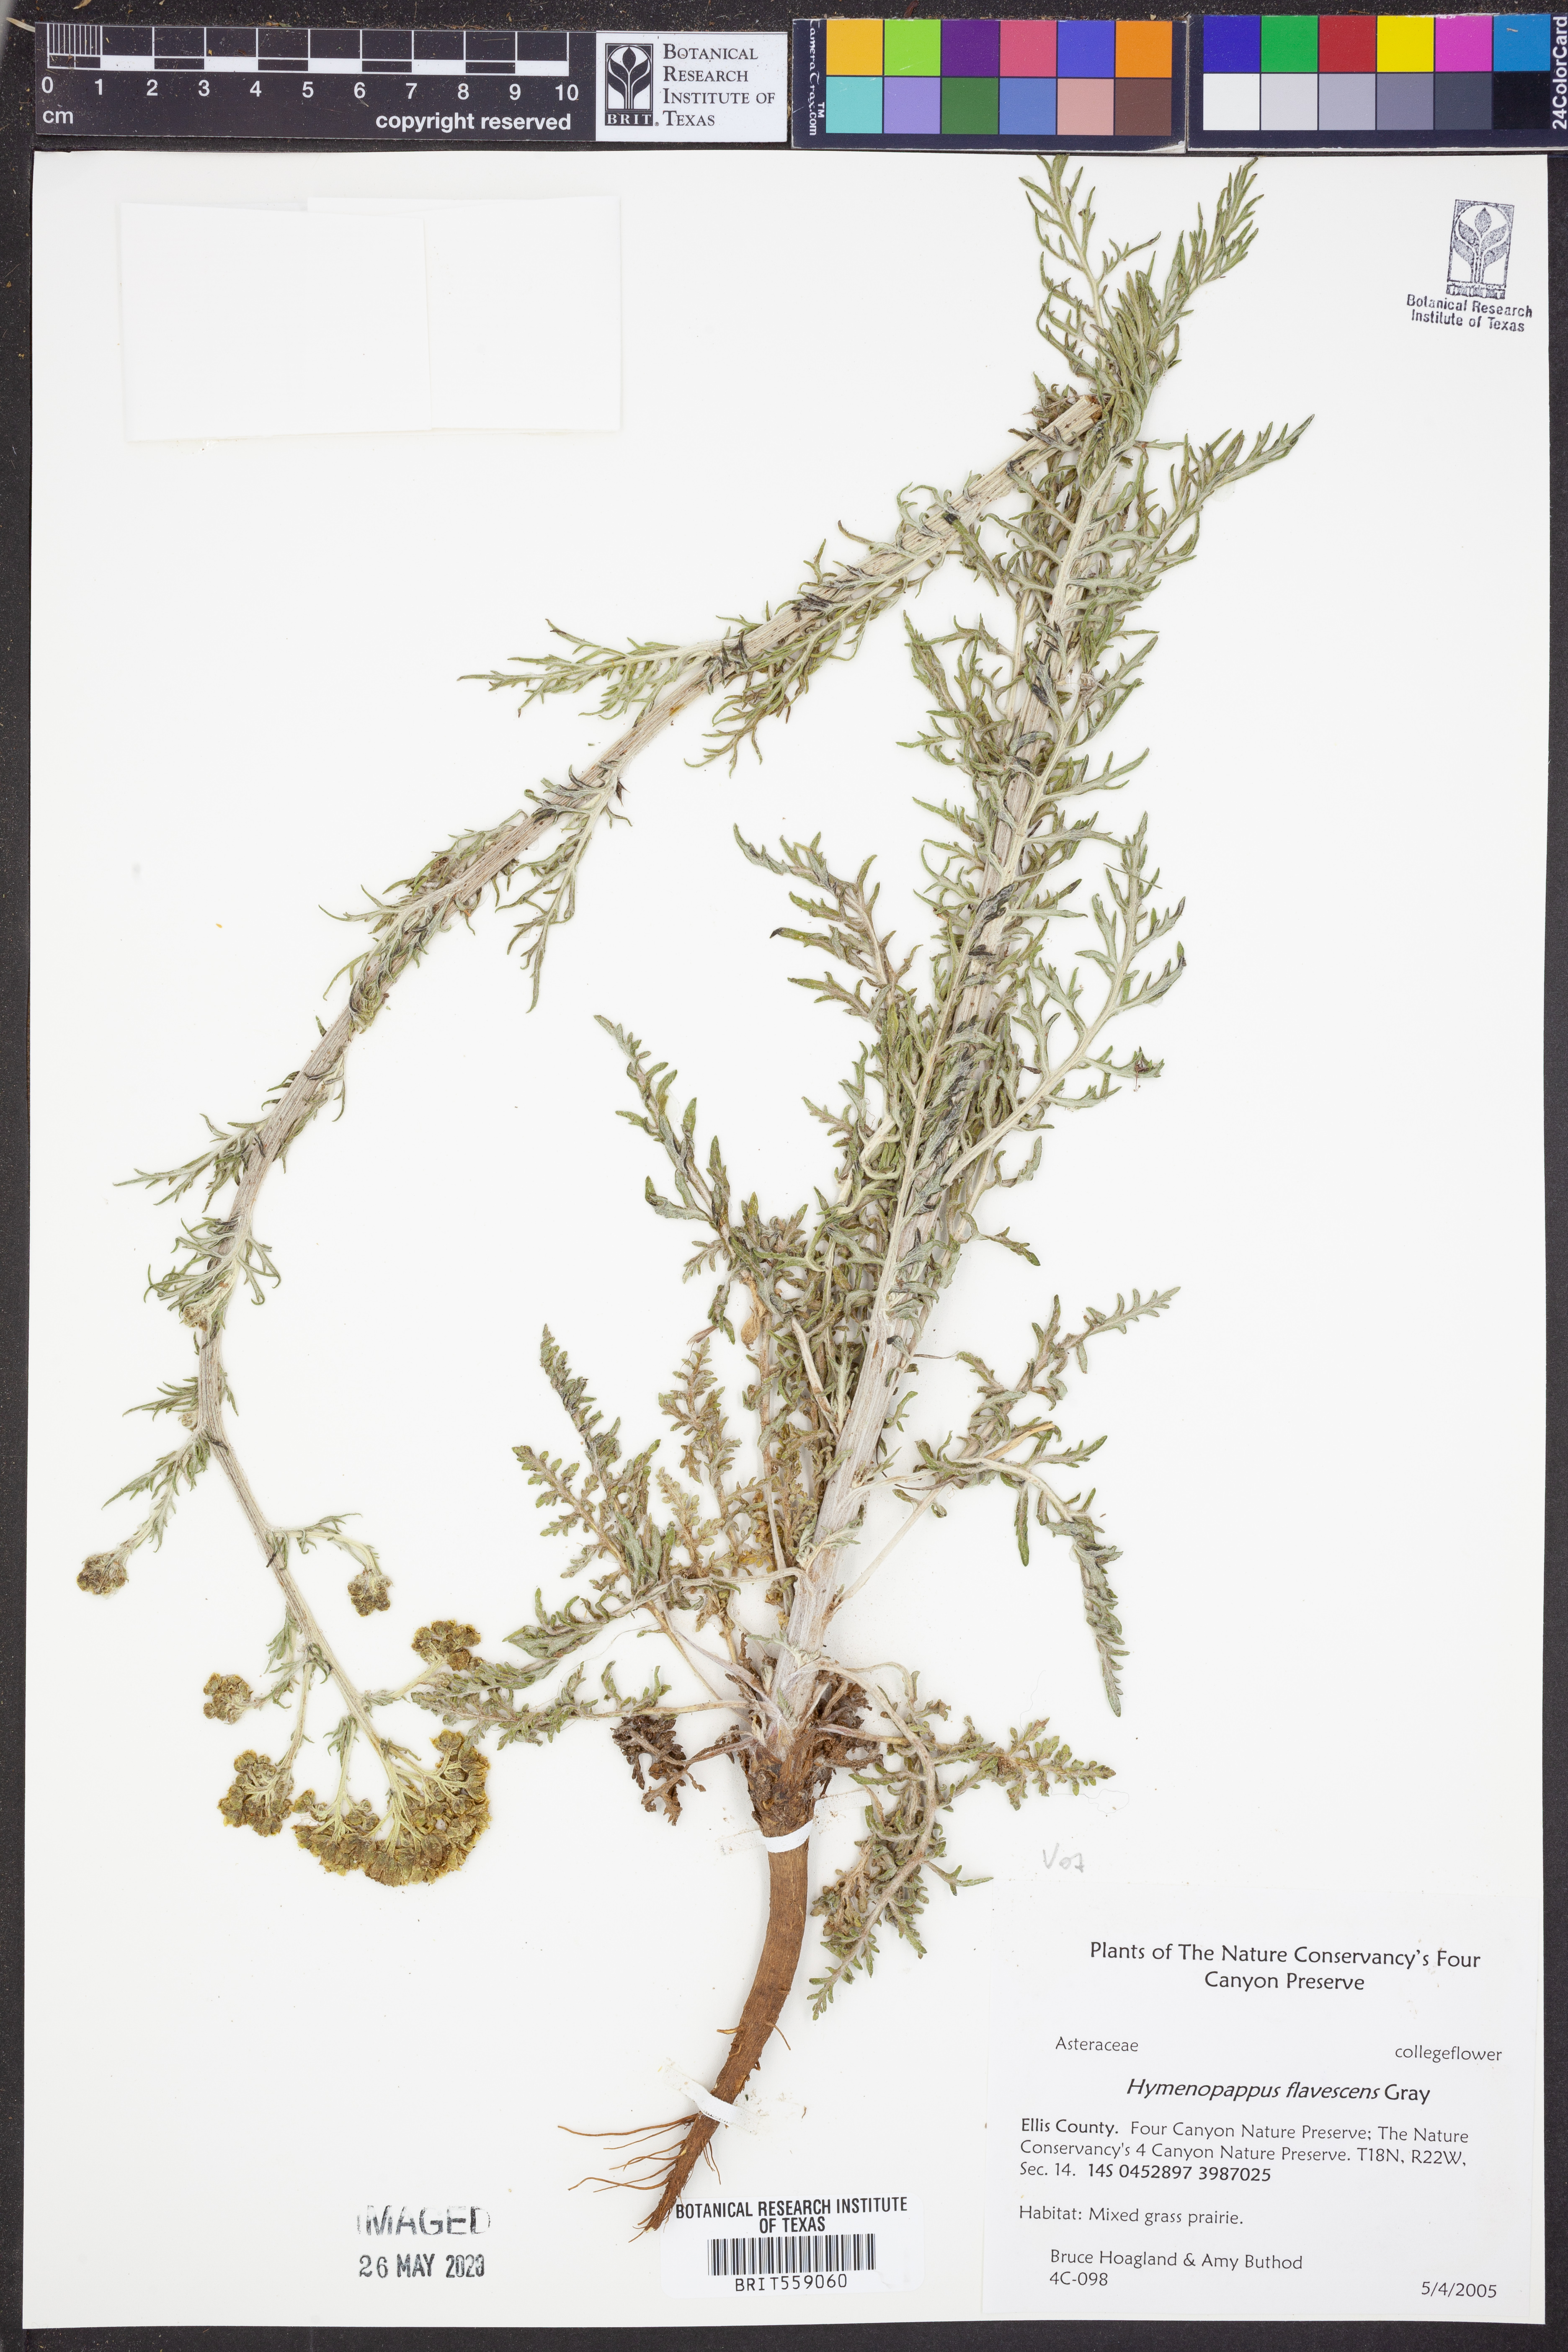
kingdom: Plantae
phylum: Tracheophyta
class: Magnoliopsida
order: Asterales
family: Asteraceae
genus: Hymenopappus
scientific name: Hymenopappus flavescens
